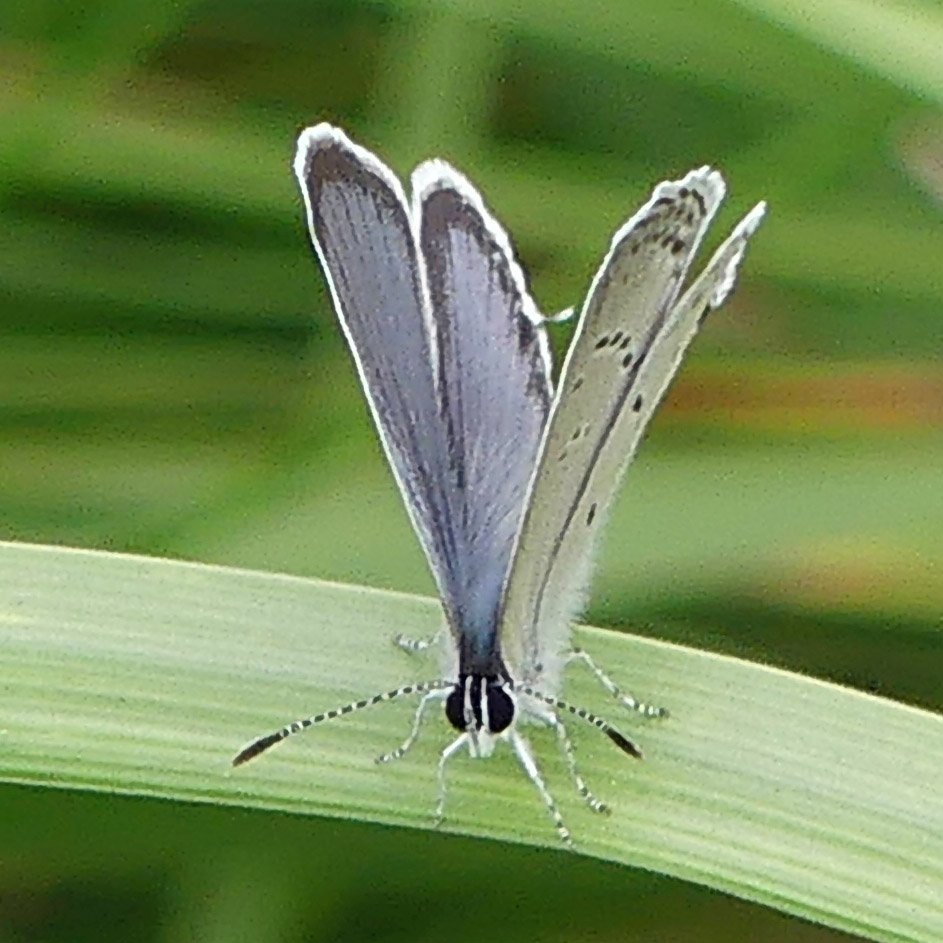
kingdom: Animalia
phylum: Arthropoda
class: Insecta
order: Lepidoptera
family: Lycaenidae
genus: Elkalyce
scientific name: Elkalyce comyntas
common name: Eastern Tailed-Blue
